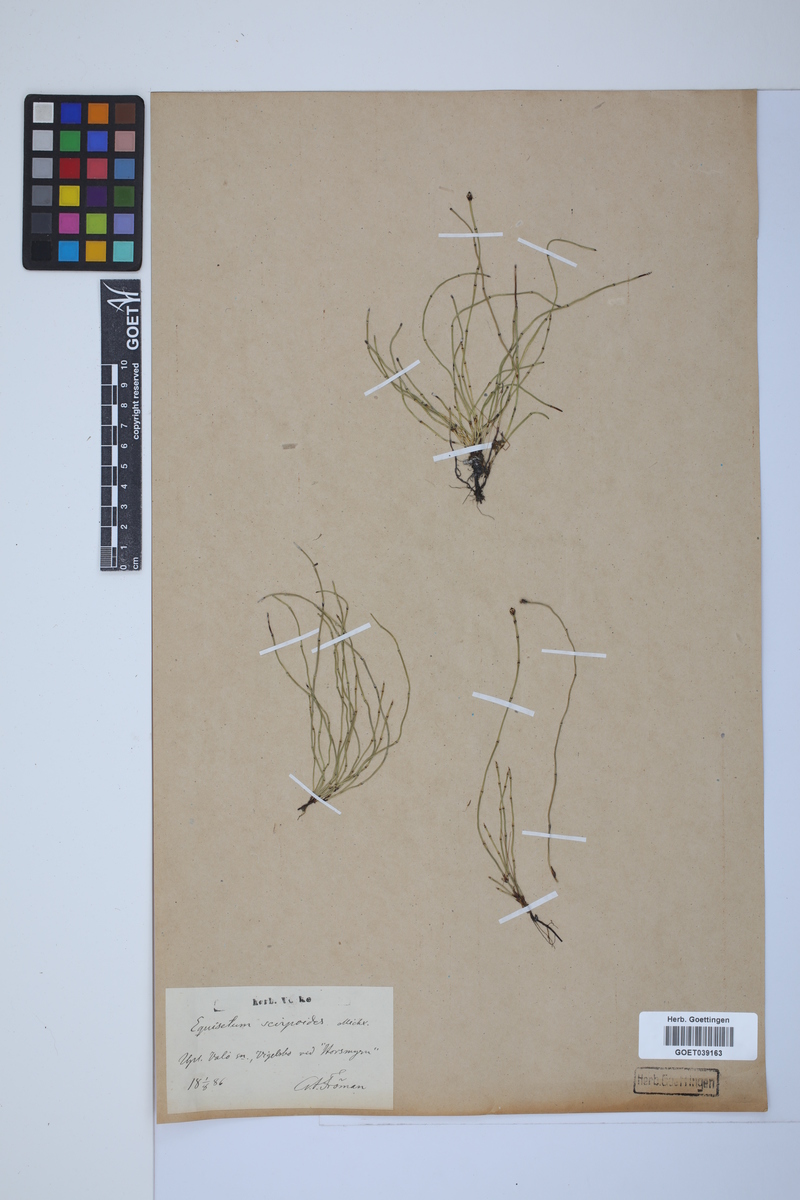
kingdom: Plantae
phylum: Tracheophyta
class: Polypodiopsida
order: Equisetales
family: Equisetaceae
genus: Equisetum
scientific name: Equisetum scirpoides
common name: Delicate horsetail
